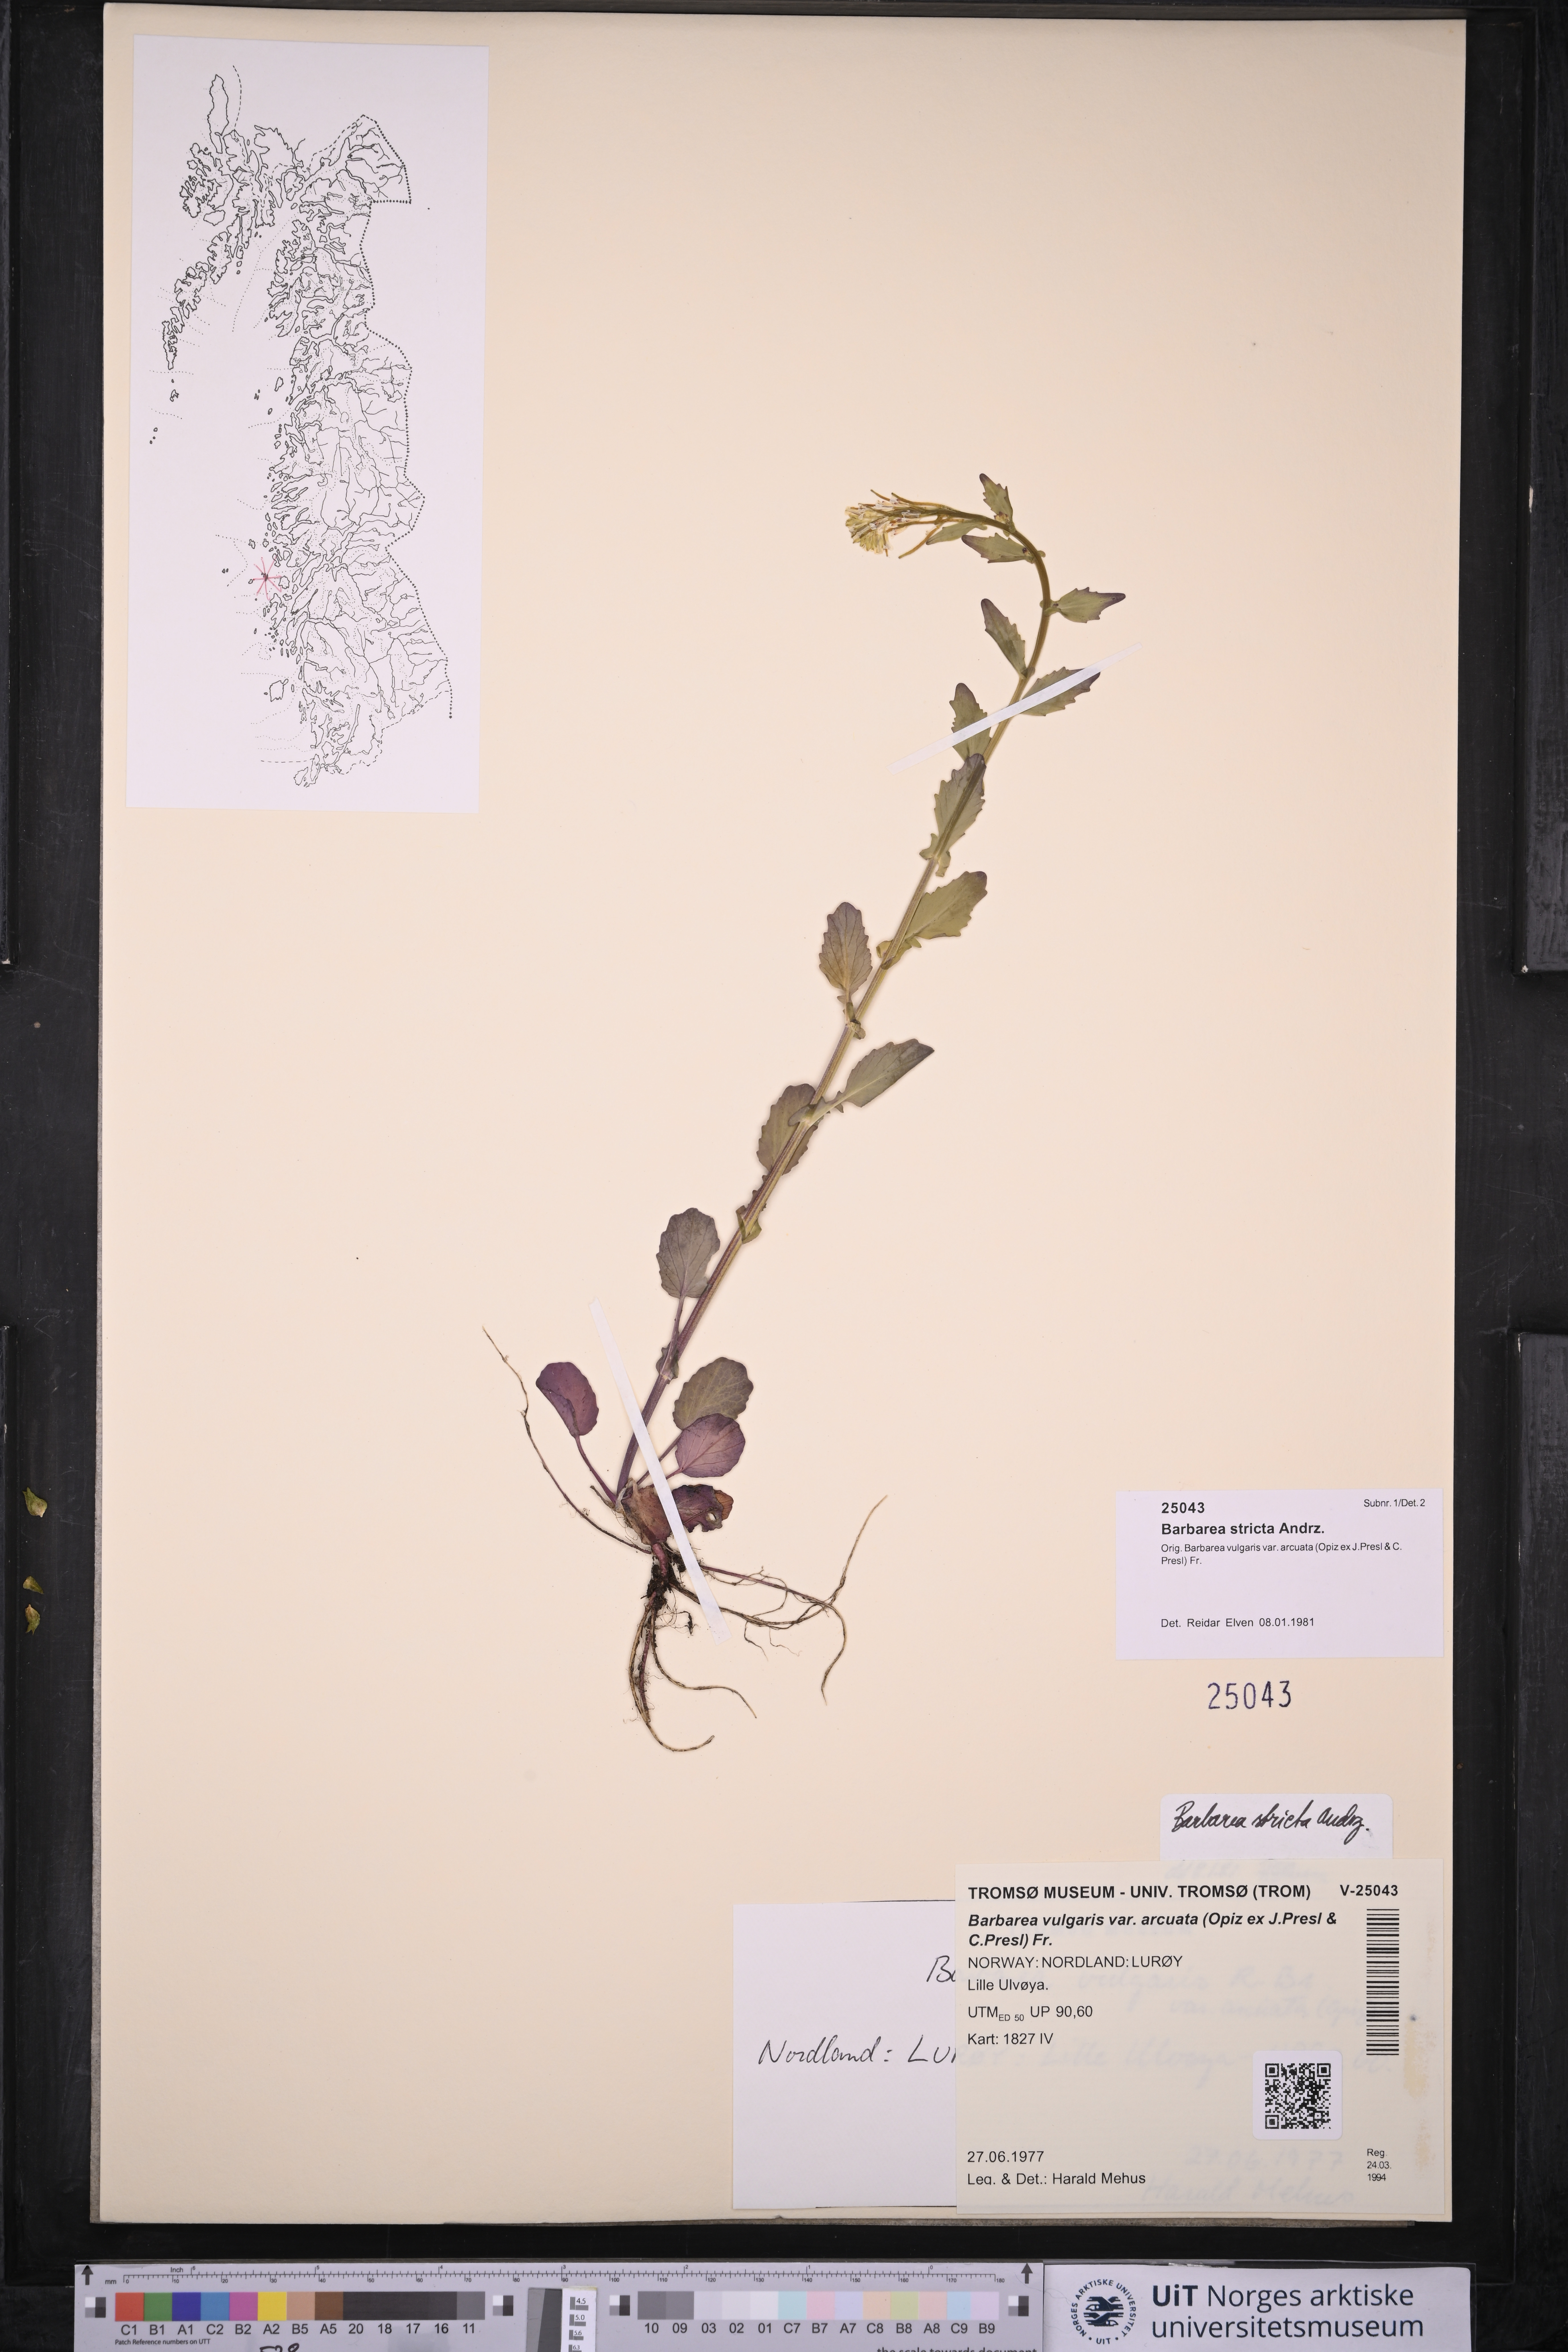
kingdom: Plantae
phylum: Tracheophyta
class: Magnoliopsida
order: Brassicales
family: Brassicaceae
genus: Barbarea
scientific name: Barbarea stricta
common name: Small-flowered winter-cress
